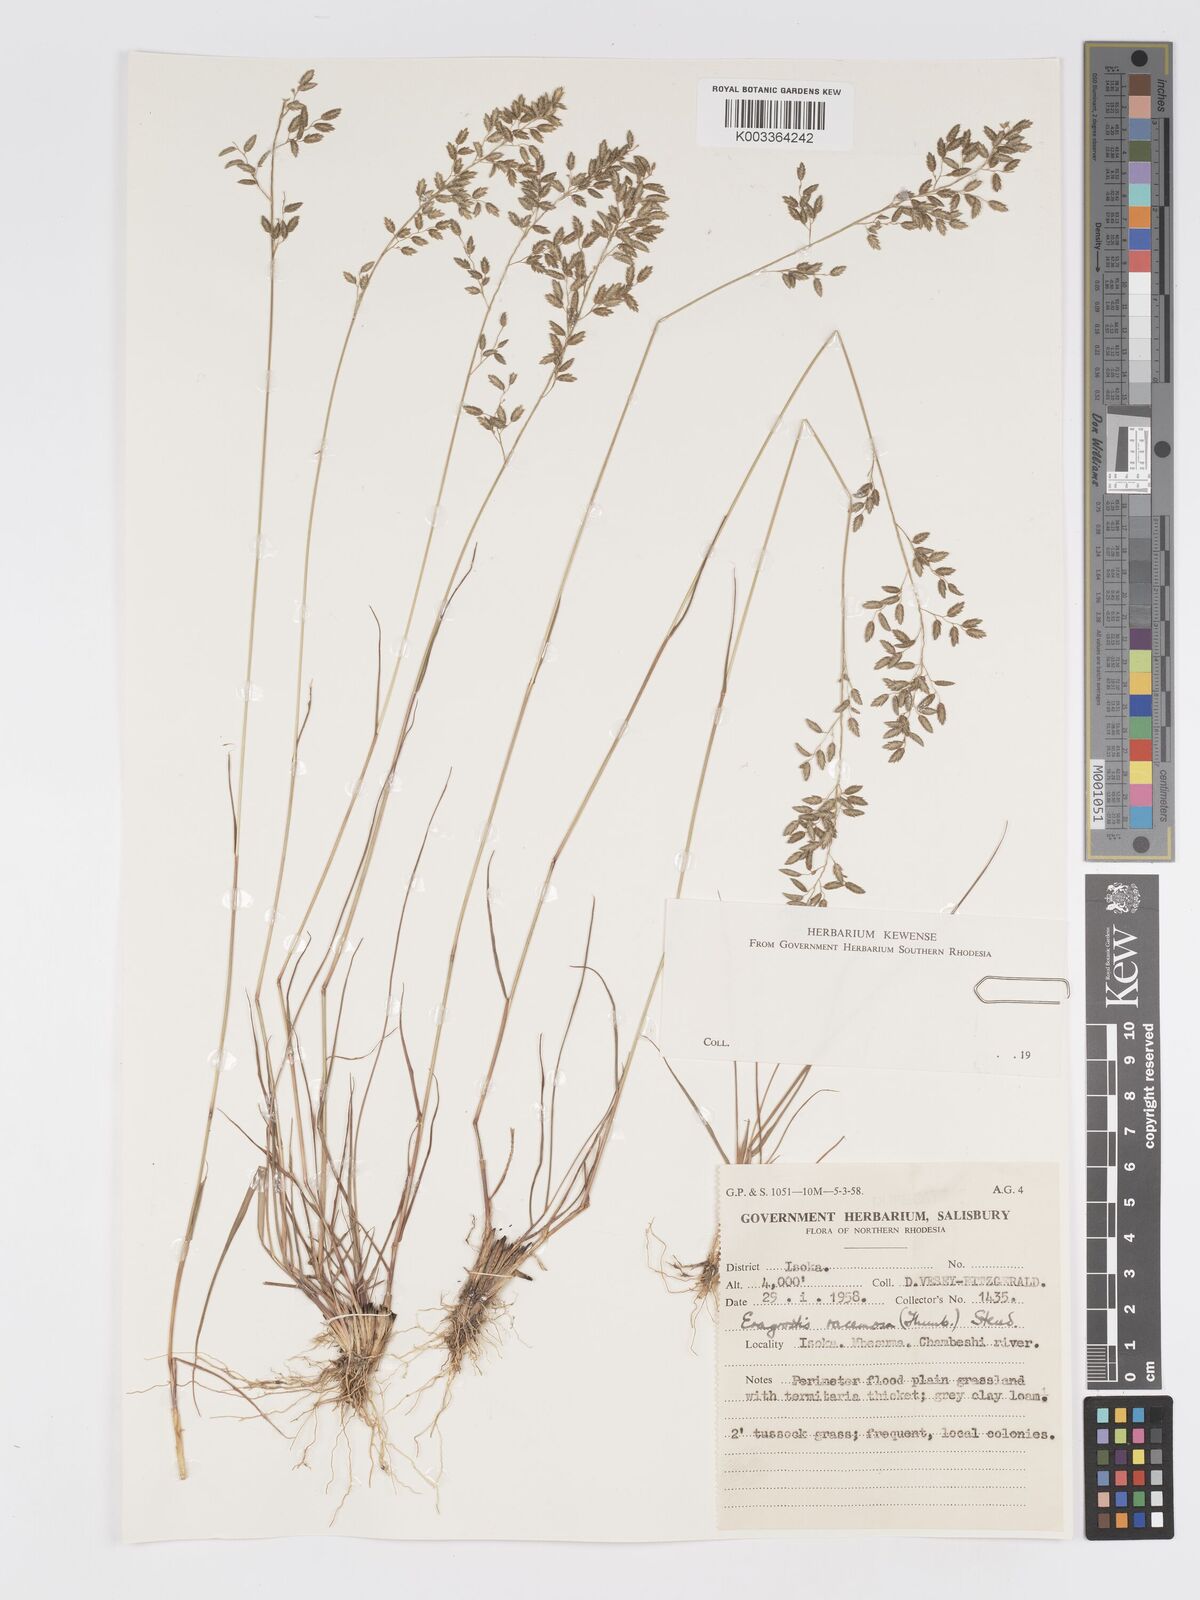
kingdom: Plantae
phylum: Tracheophyta
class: Liliopsida
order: Poales
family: Poaceae
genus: Eragrostis
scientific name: Eragrostis racemosa
